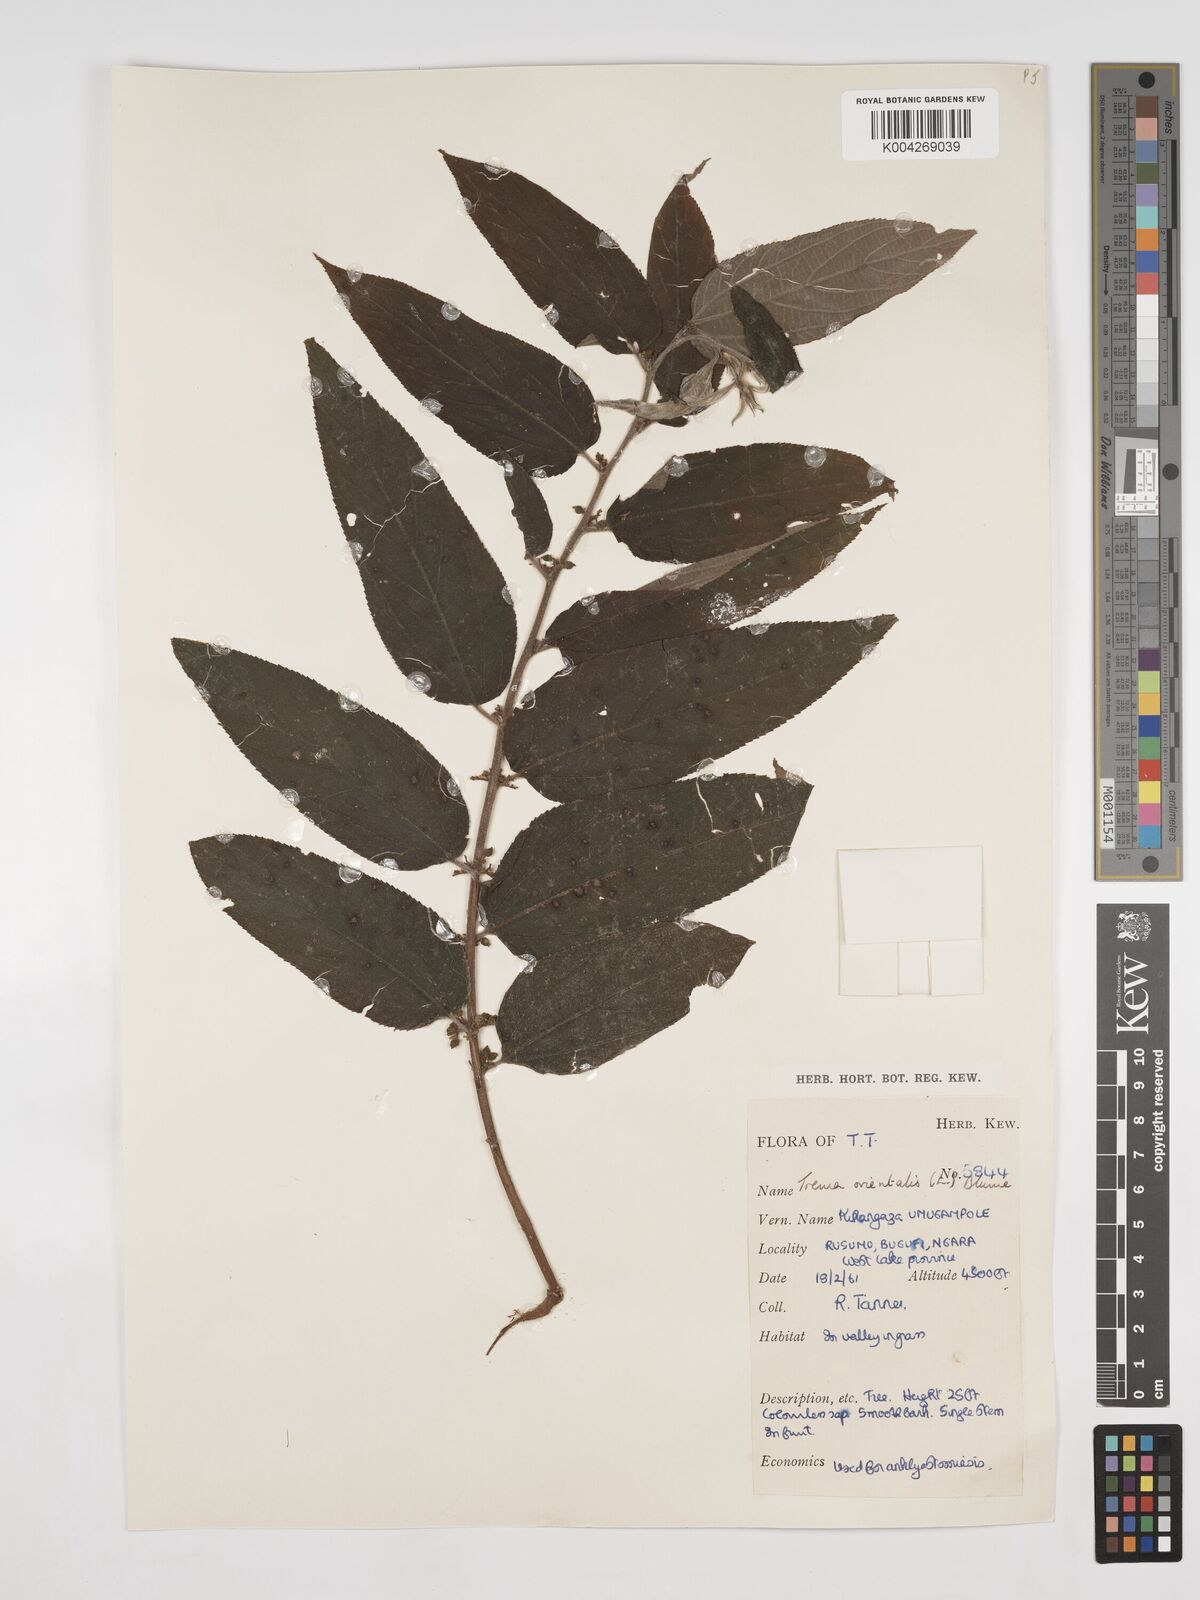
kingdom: Plantae
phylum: Tracheophyta
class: Magnoliopsida
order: Rosales
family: Cannabaceae
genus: Trema
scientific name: Trema orientale
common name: Indian charcoal tree
